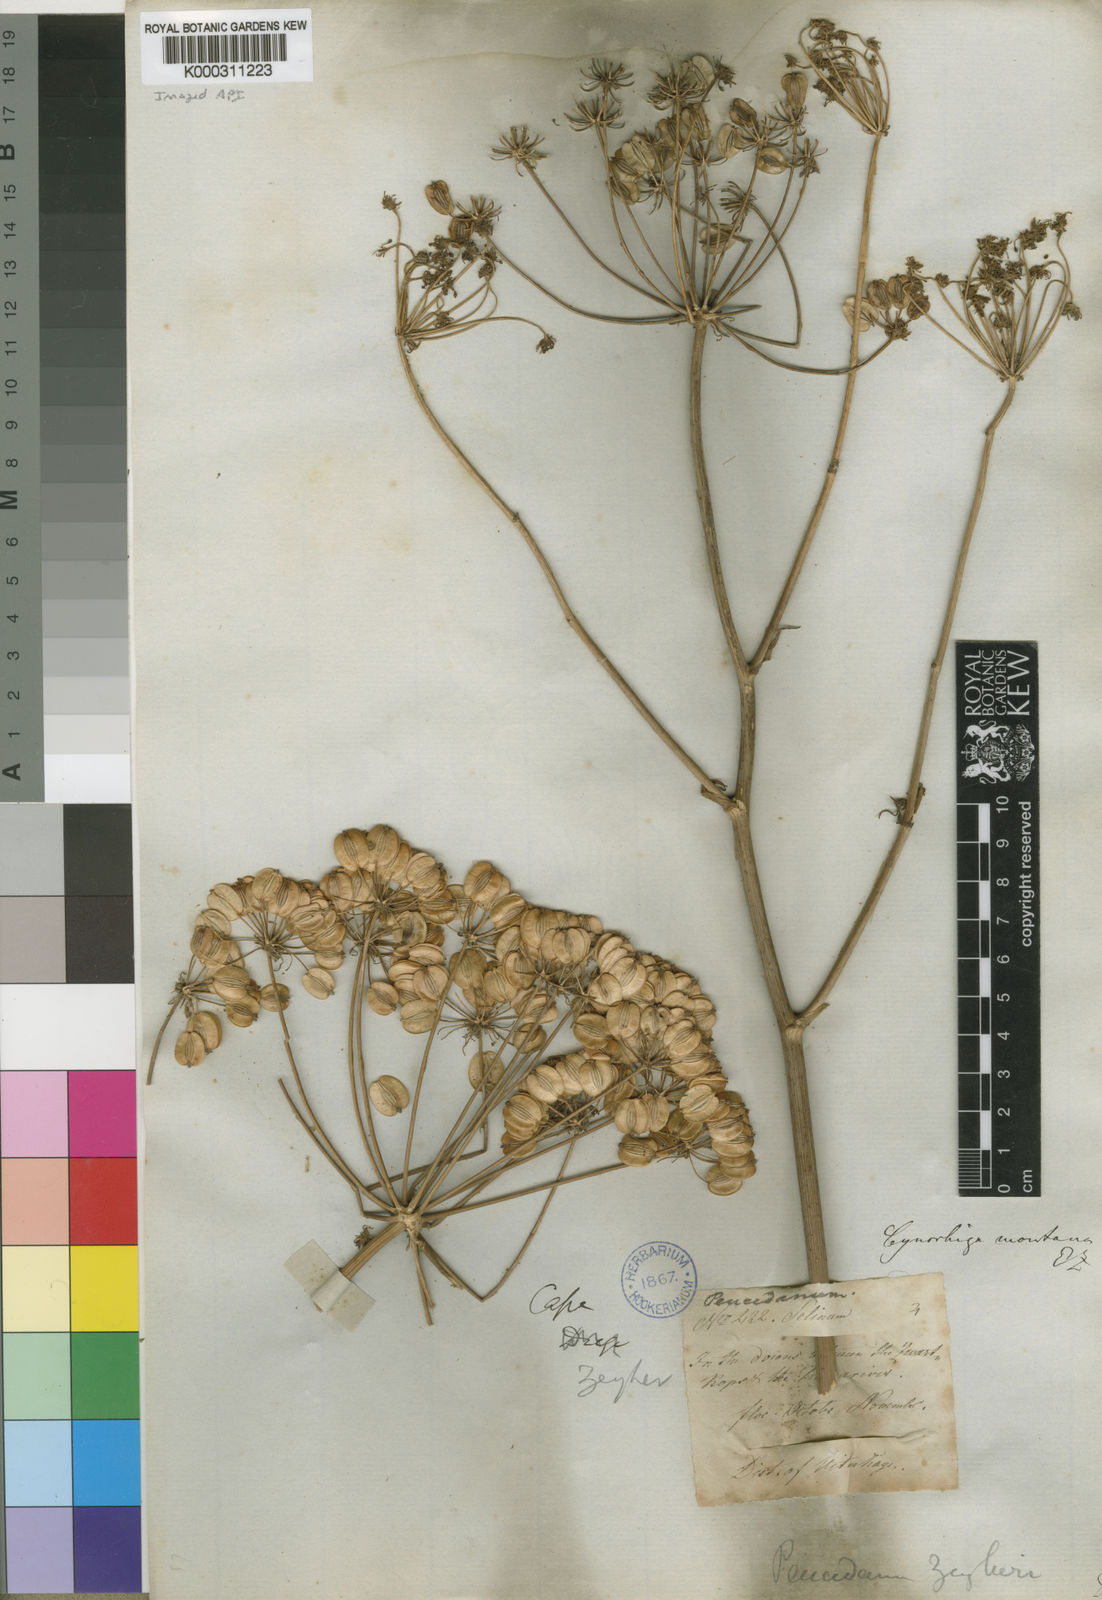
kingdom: Plantae
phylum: Tracheophyta
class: Magnoliopsida
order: Apiales
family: Apiaceae
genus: Cynorhiza
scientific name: Cynorhiza typica
